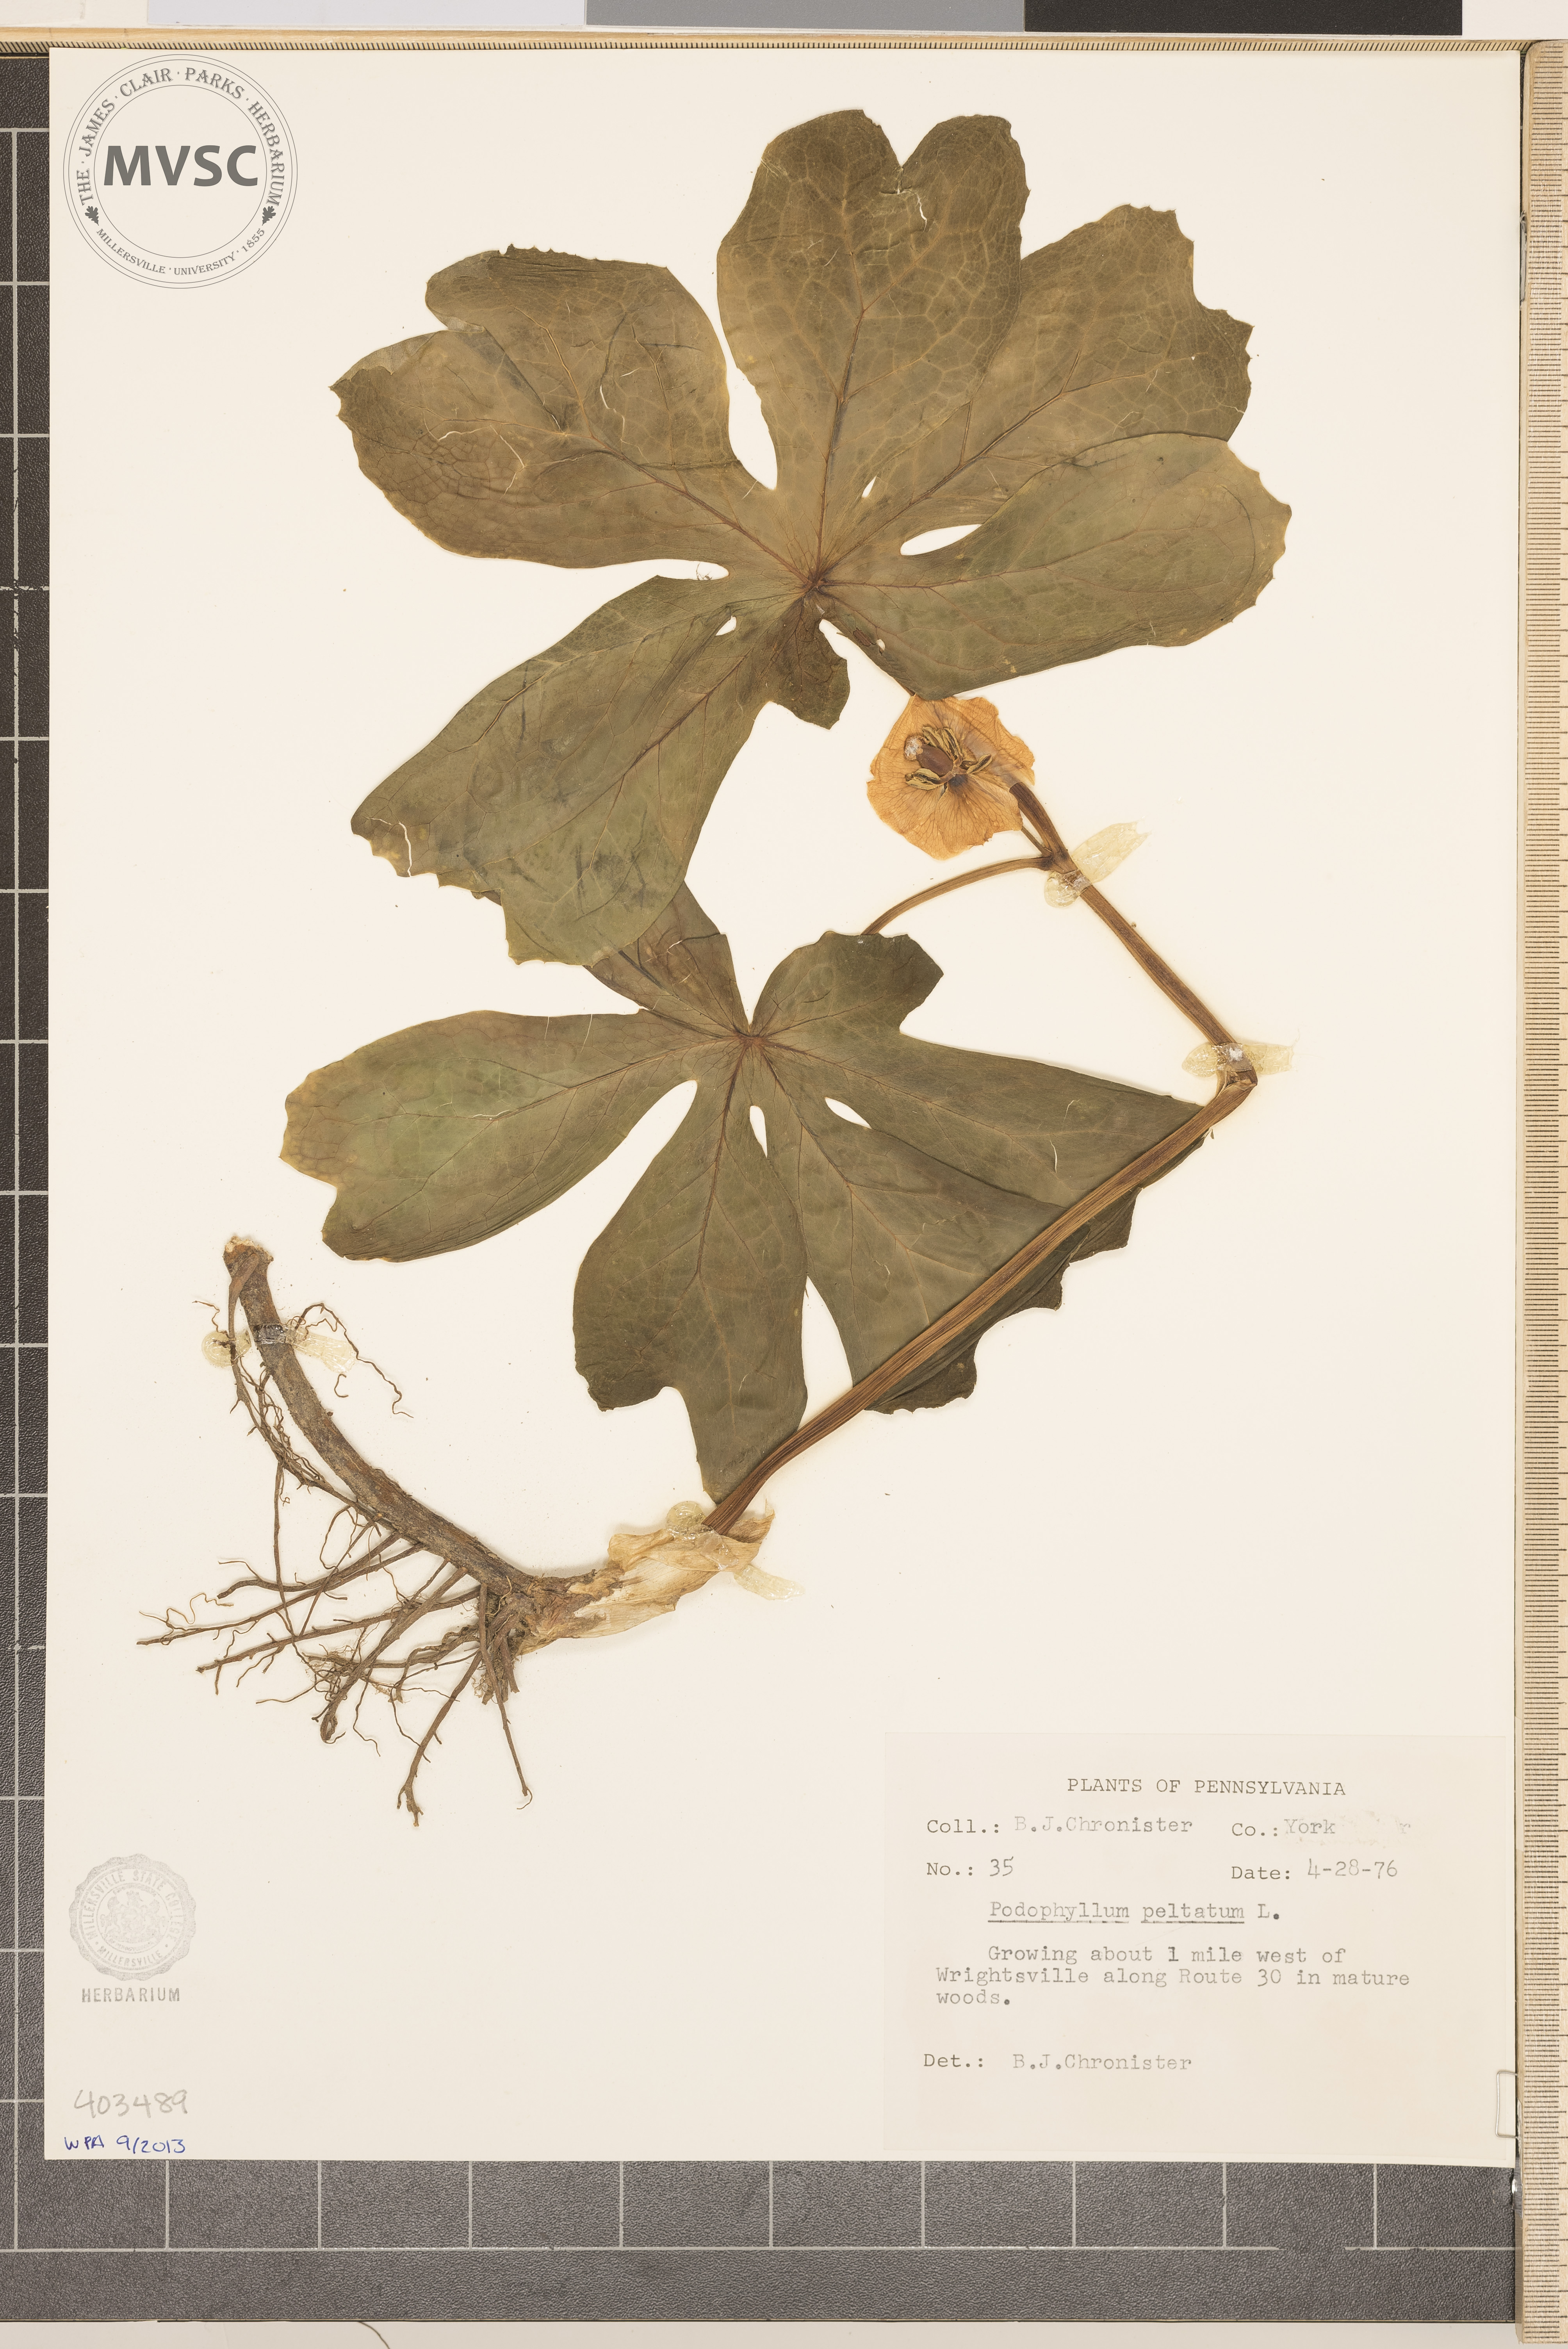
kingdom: Plantae
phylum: Tracheophyta
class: Magnoliopsida
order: Ranunculales
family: Berberidaceae
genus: Podophyllum
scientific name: Podophyllum peltatum
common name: May-Apple
